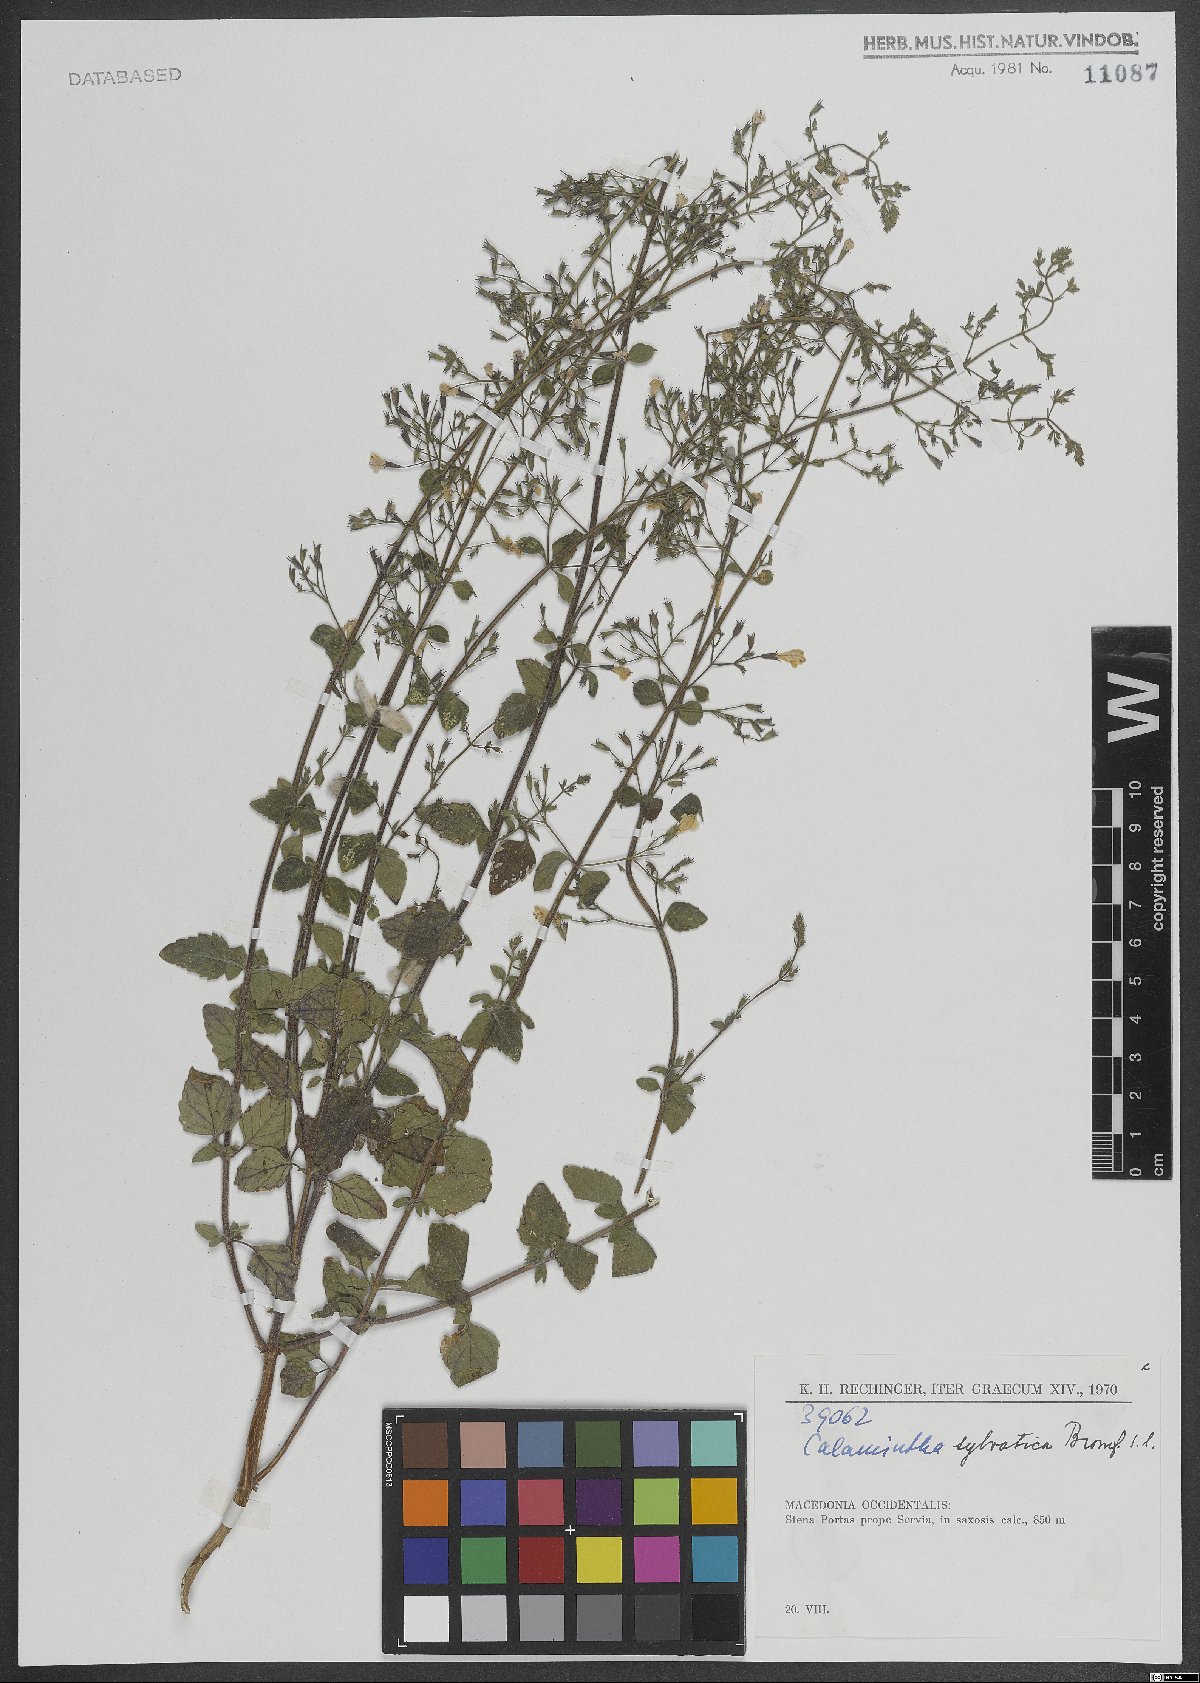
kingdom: Plantae
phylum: Tracheophyta
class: Magnoliopsida
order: Lamiales
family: Lamiaceae
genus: Clinopodium
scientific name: Clinopodium menthifolium
